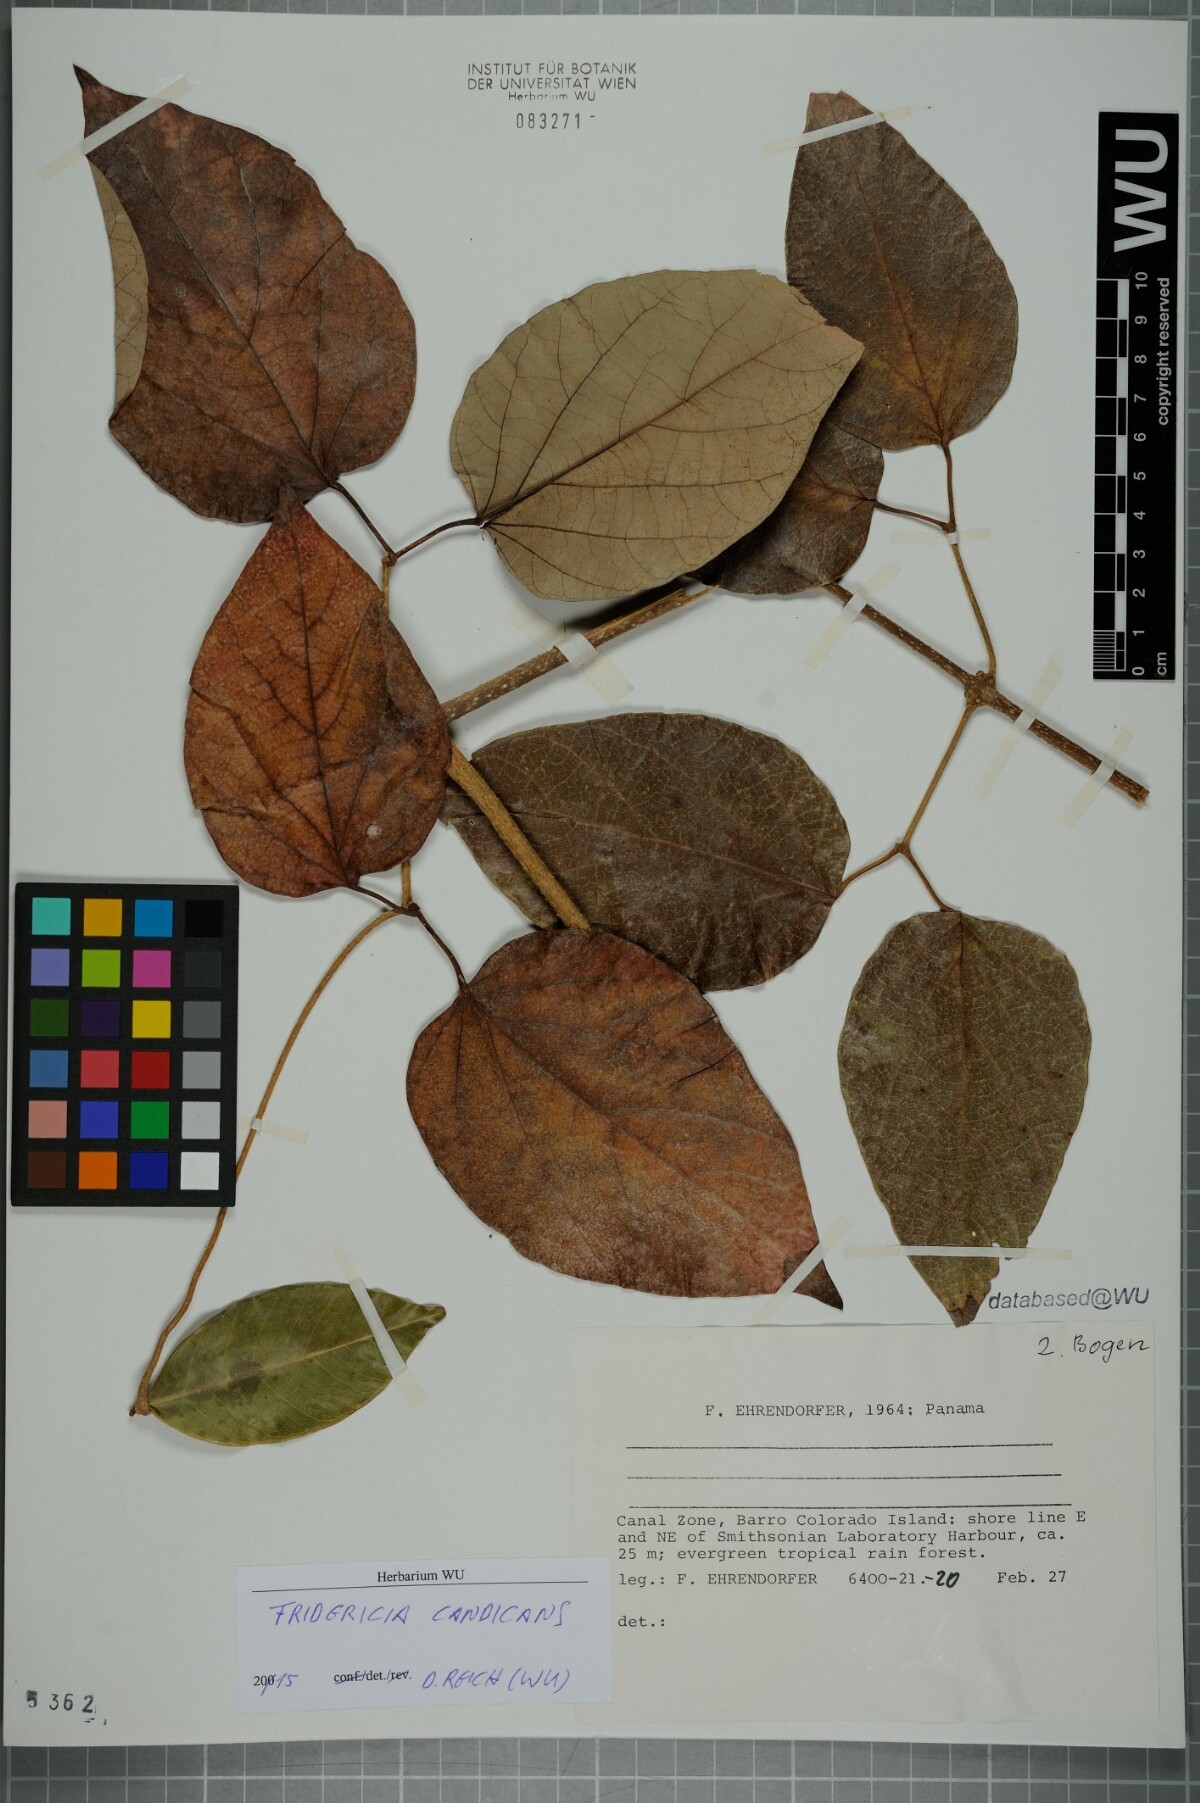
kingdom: Plantae
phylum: Tracheophyta
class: Magnoliopsida
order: Lamiales
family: Bignoniaceae
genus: Fridericia
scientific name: Fridericia candicans
